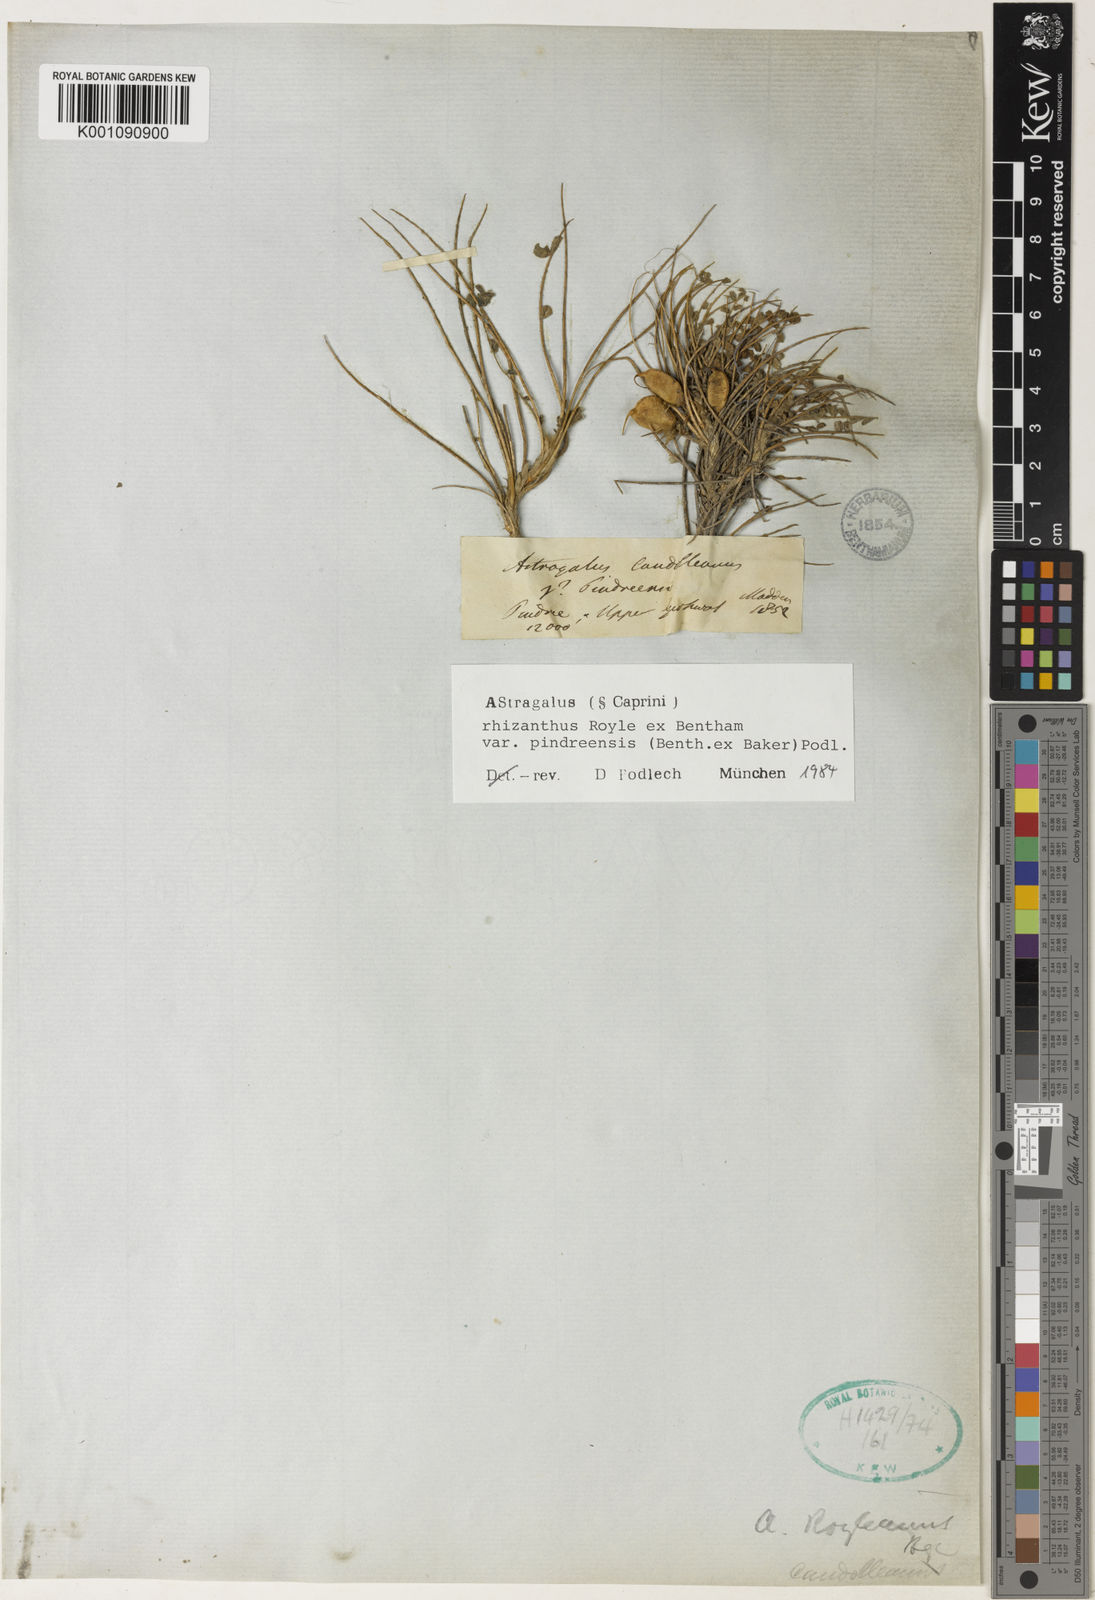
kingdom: Plantae
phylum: Tracheophyta
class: Magnoliopsida
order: Fabales
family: Fabaceae
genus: Astragalus
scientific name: Astragalus
